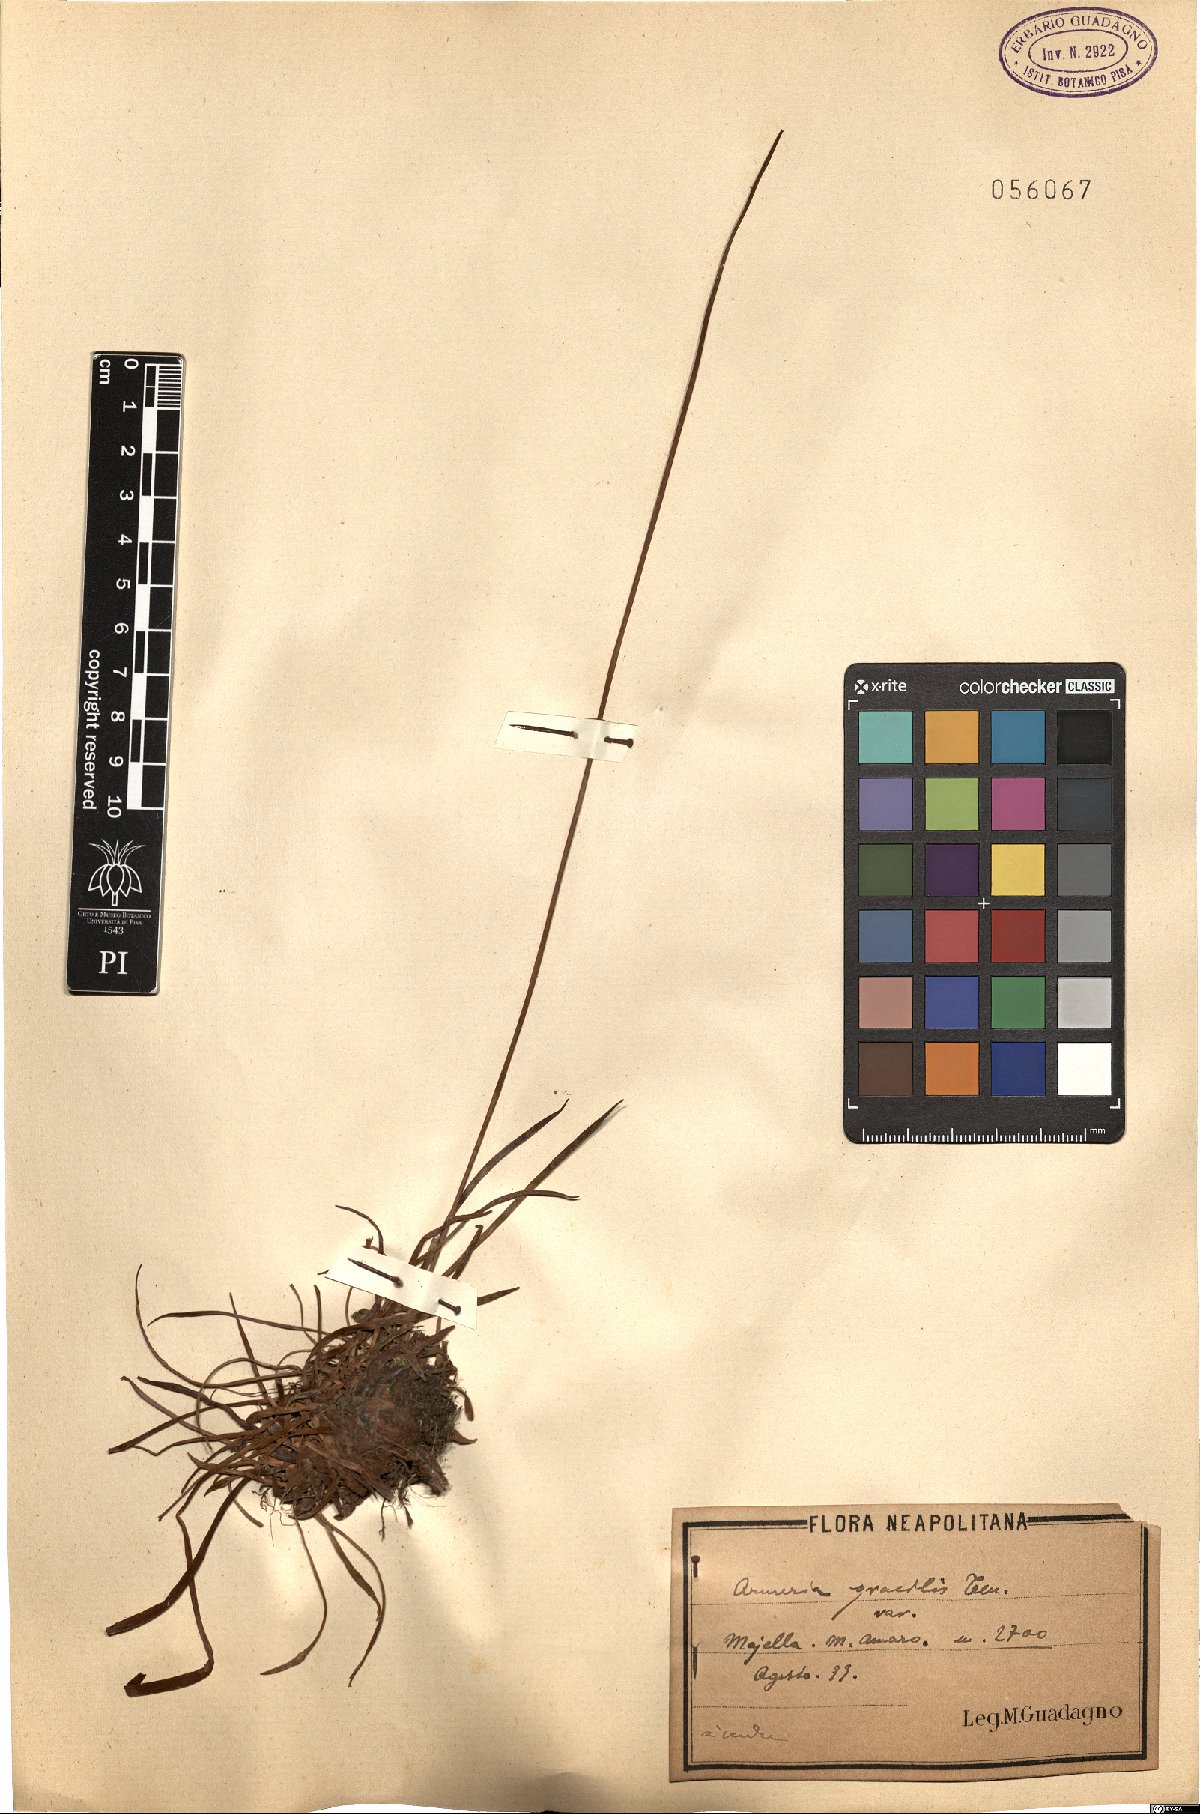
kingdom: Plantae
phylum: Tracheophyta
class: Magnoliopsida
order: Caryophyllales
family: Plumbaginaceae
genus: Armeria
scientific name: Armeria nebrodensis
